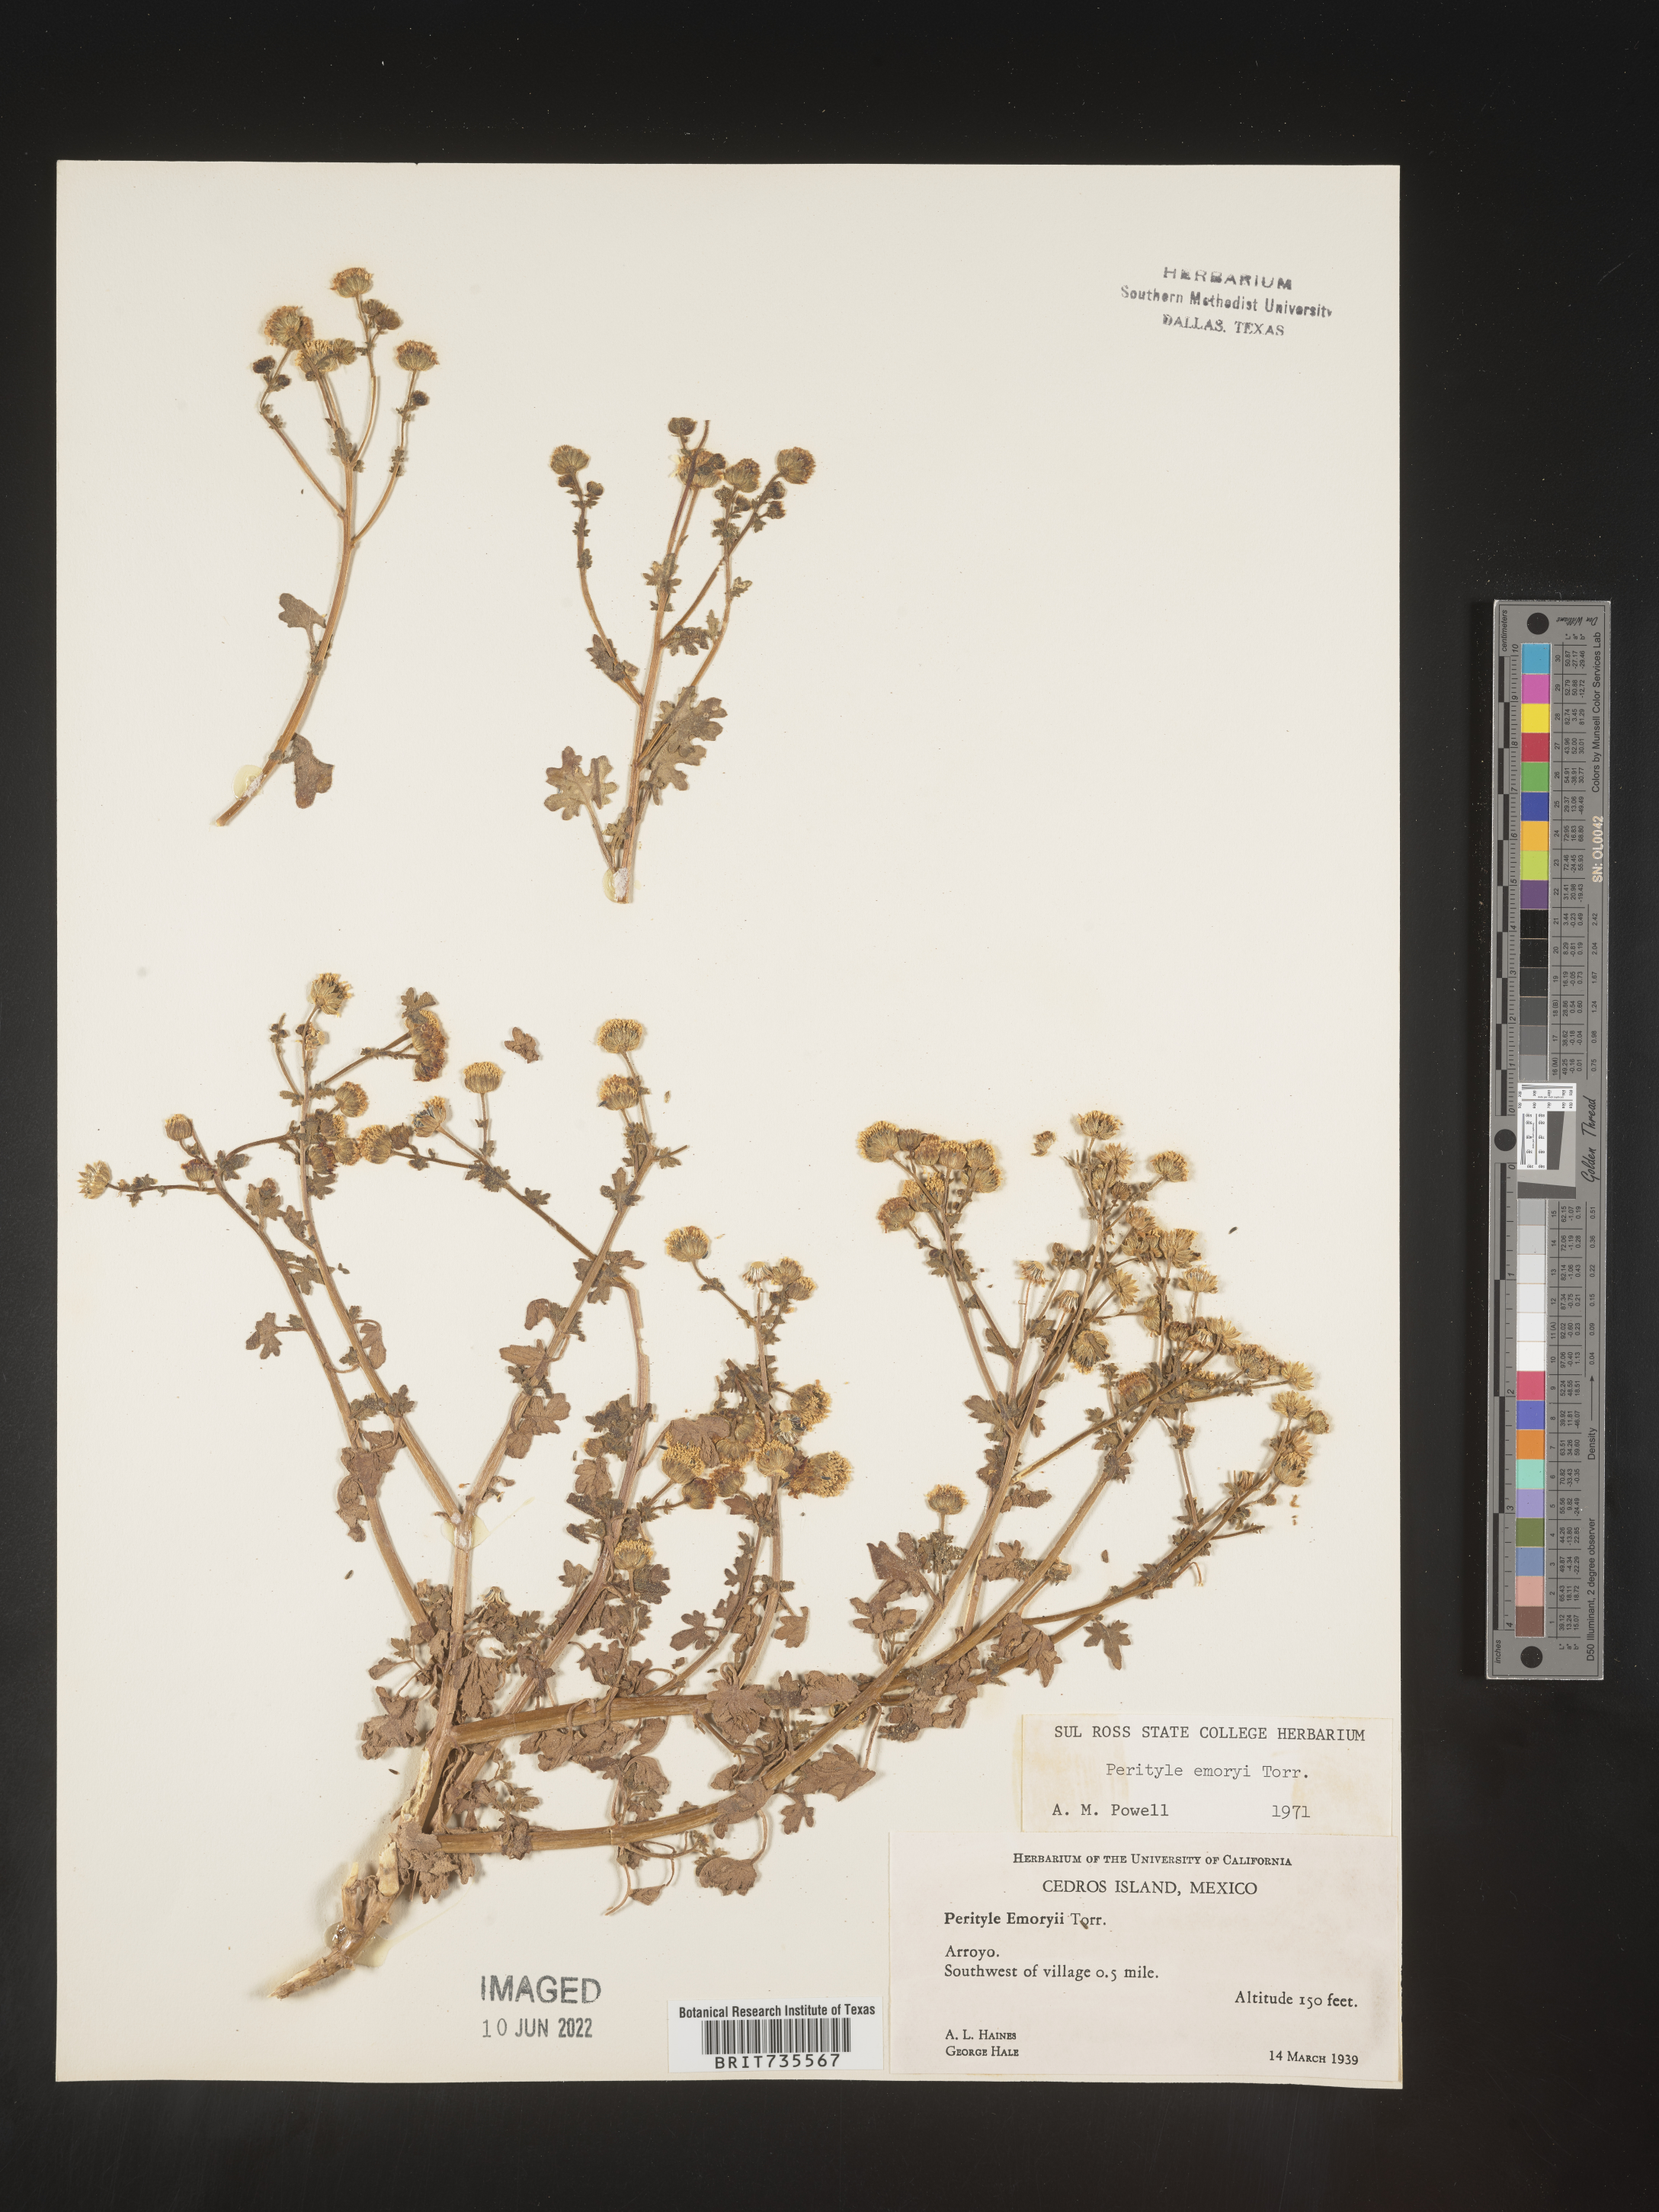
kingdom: Plantae
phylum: Tracheophyta
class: Magnoliopsida
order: Asterales
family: Asteraceae
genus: Perityle
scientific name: Perityle
